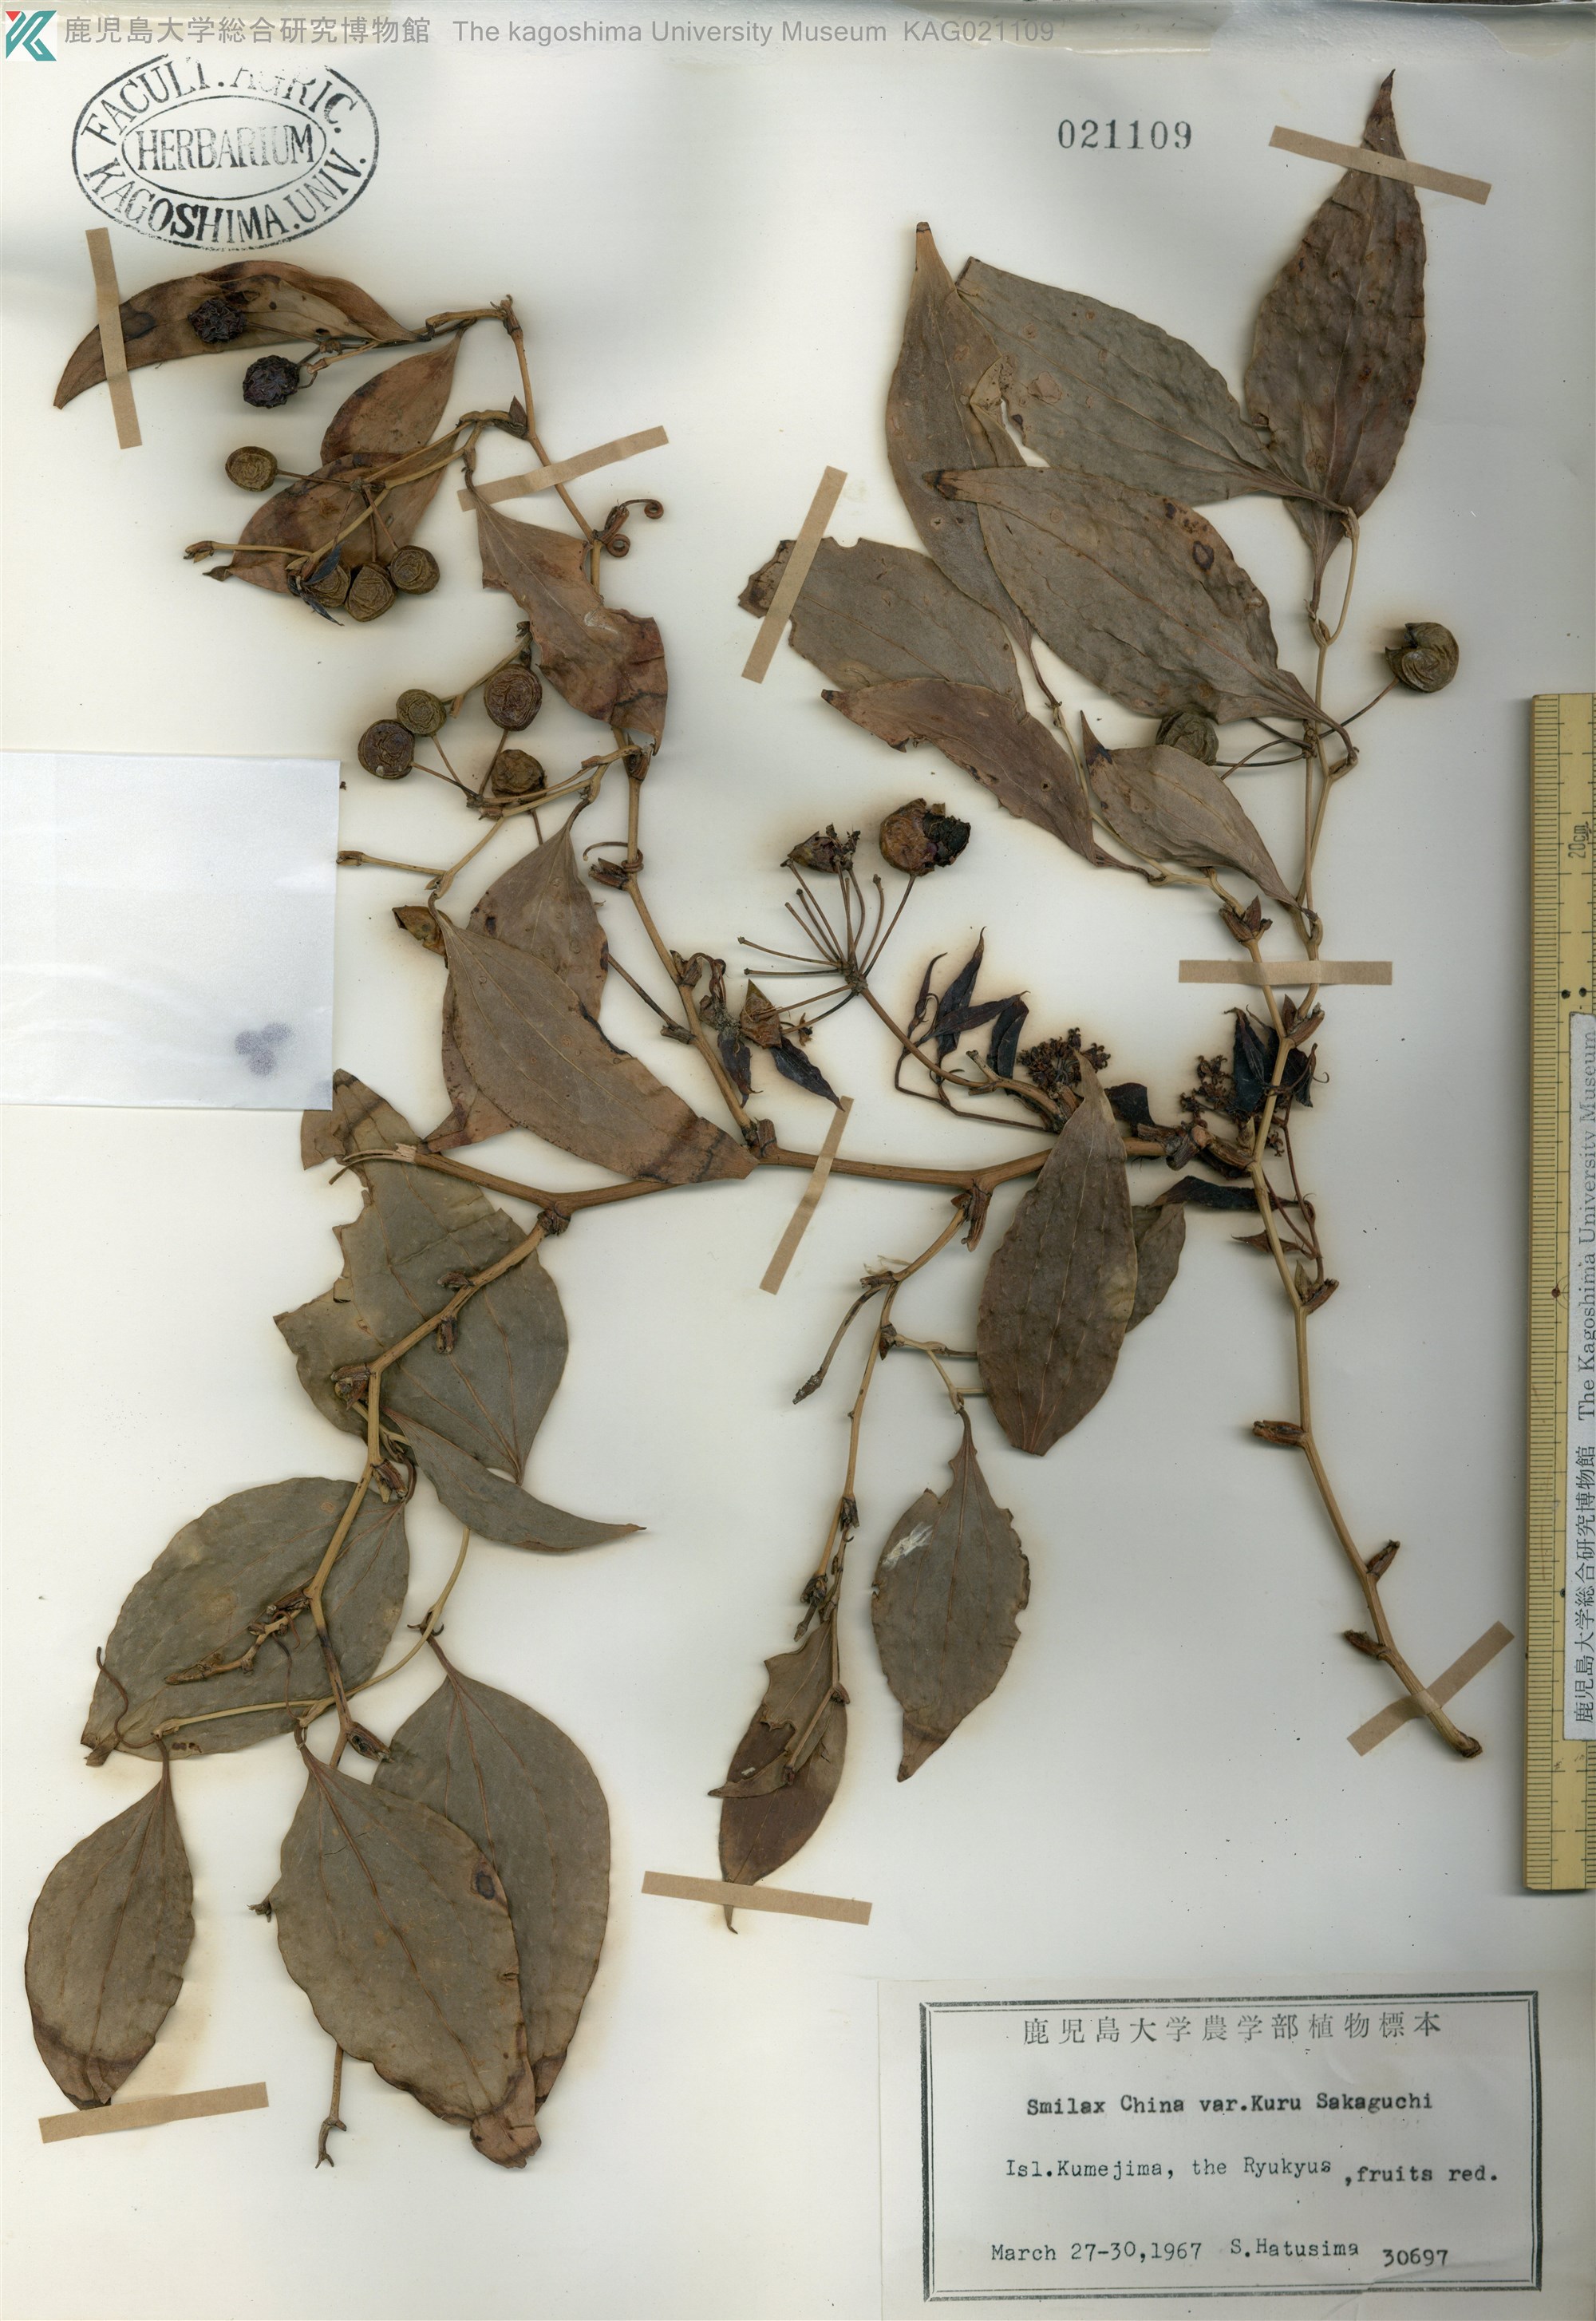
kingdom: Plantae
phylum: Tracheophyta
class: Liliopsida
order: Liliales
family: Smilacaceae
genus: Smilax
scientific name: Smilax china
